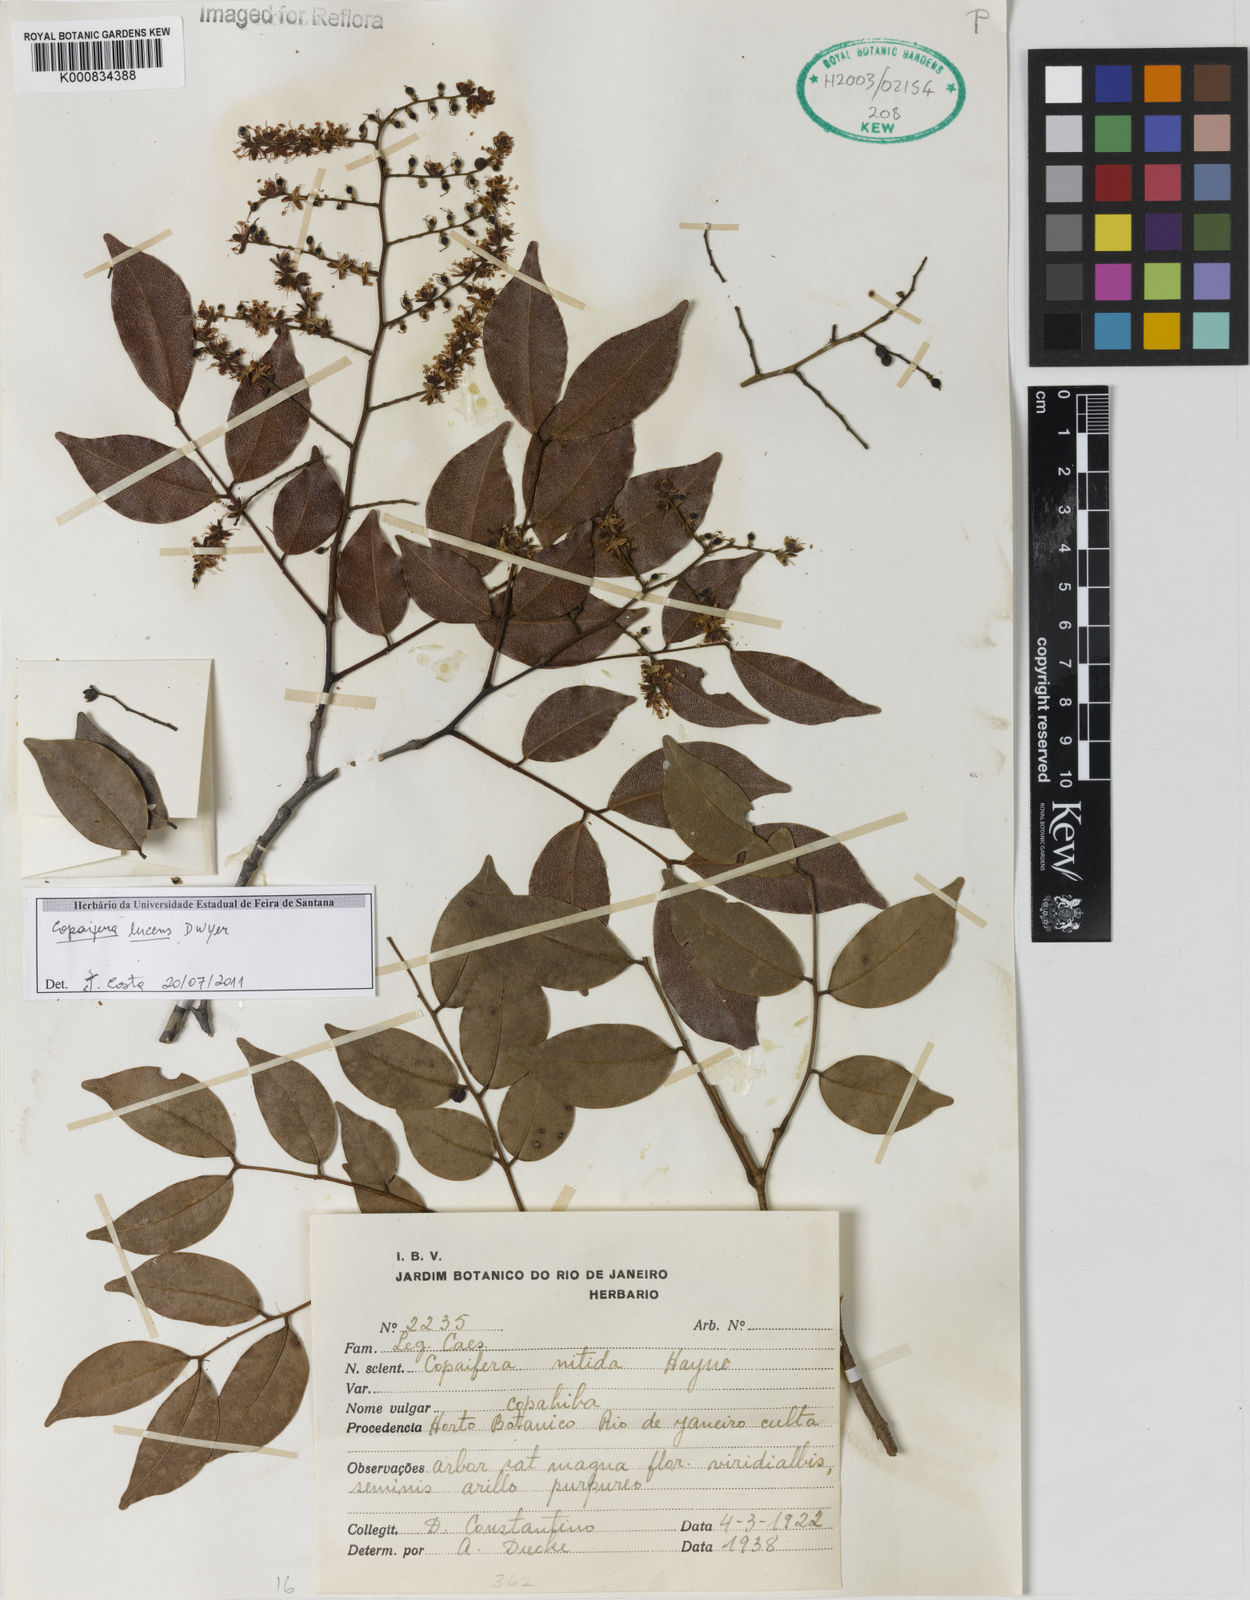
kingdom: Plantae
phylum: Tracheophyta
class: Magnoliopsida
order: Fabales
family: Fabaceae
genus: Copaifera
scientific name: Copaifera lucens
